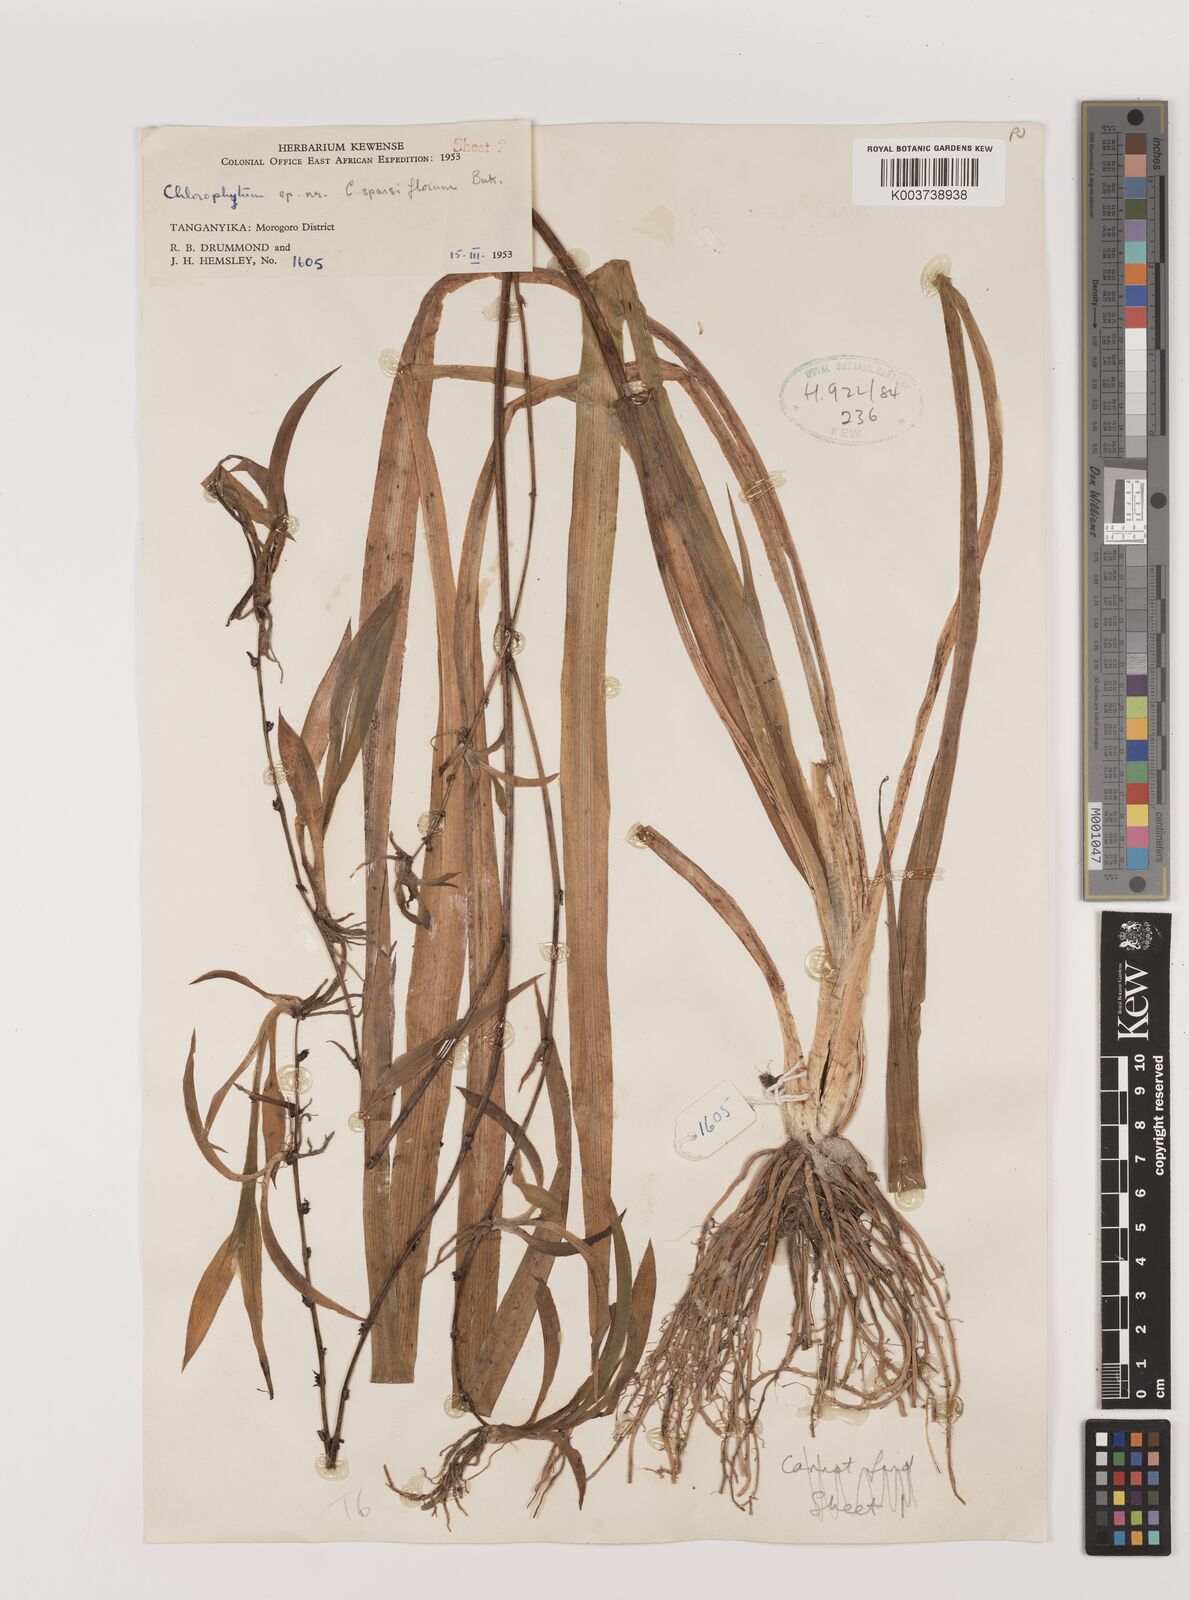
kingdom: Plantae
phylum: Tracheophyta
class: Liliopsida
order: Asparagales
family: Asparagaceae
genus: Chlorophytum
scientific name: Chlorophytum comosum
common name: Spider plant
